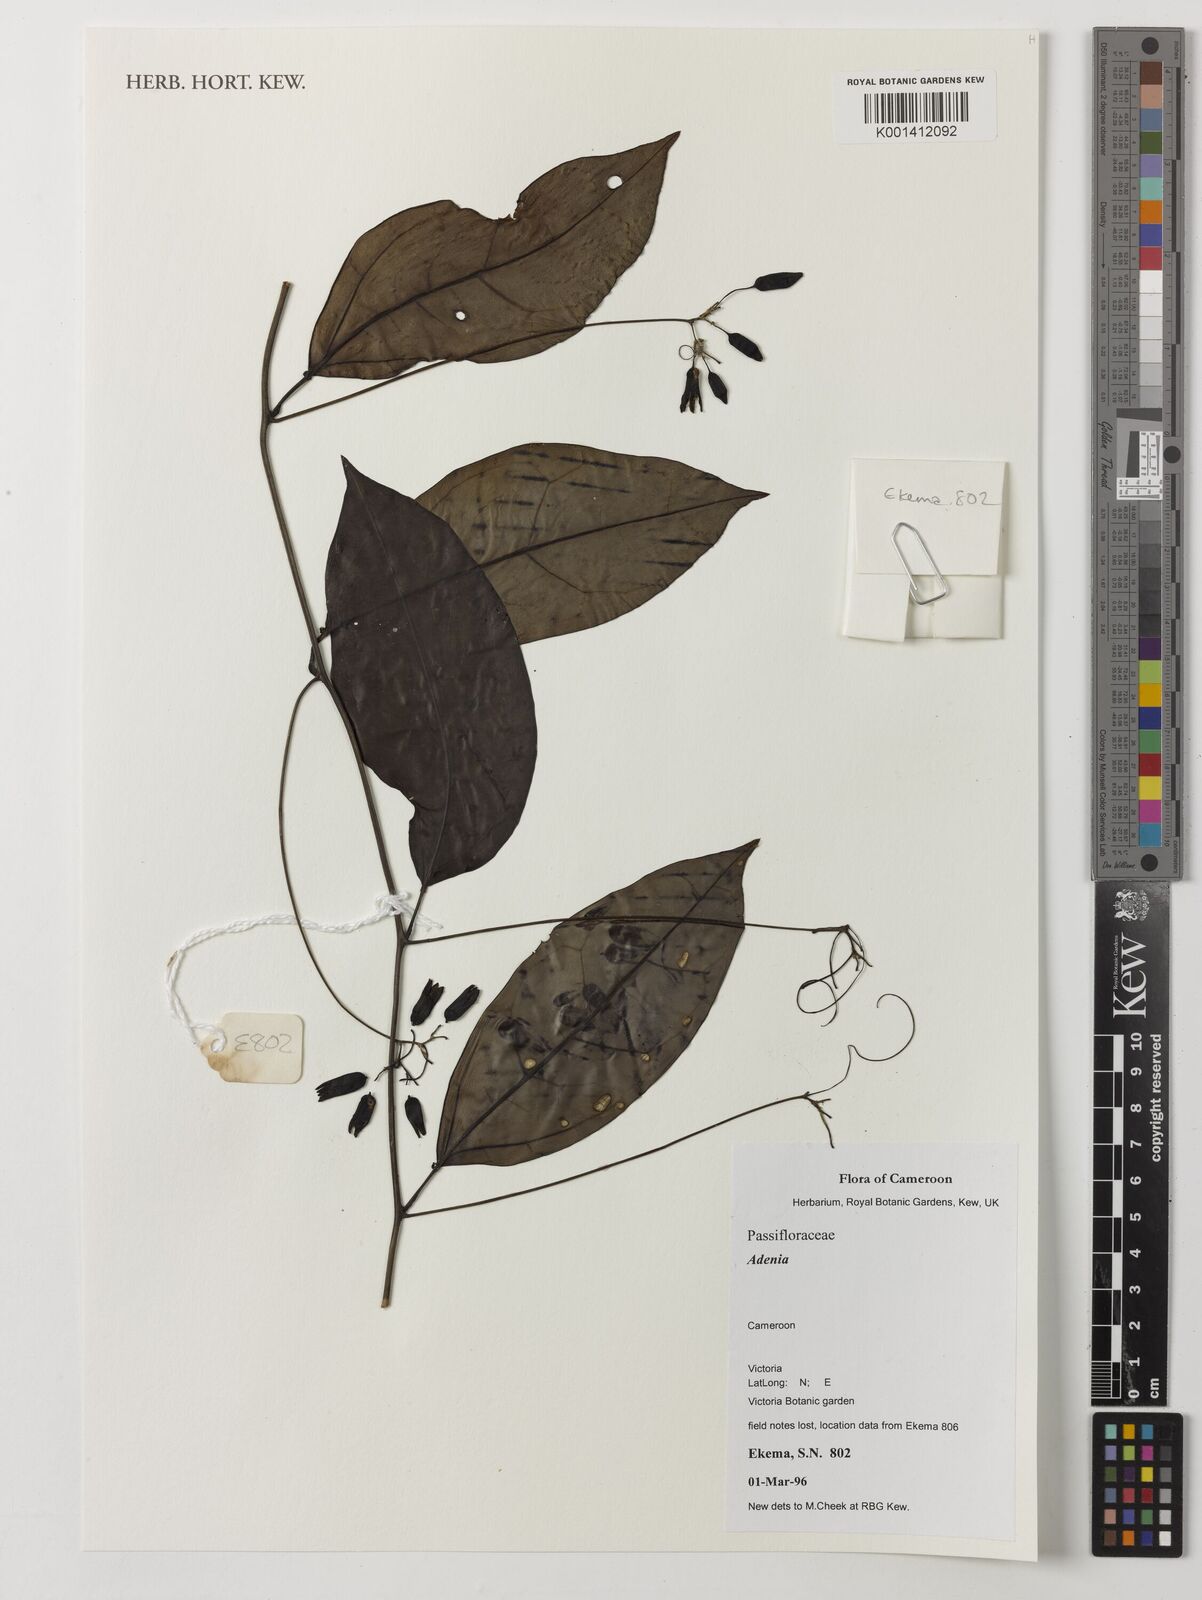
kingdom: Plantae
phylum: Tracheophyta
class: Magnoliopsida
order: Malpighiales
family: Passifloraceae
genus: Adenia
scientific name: Adenia
